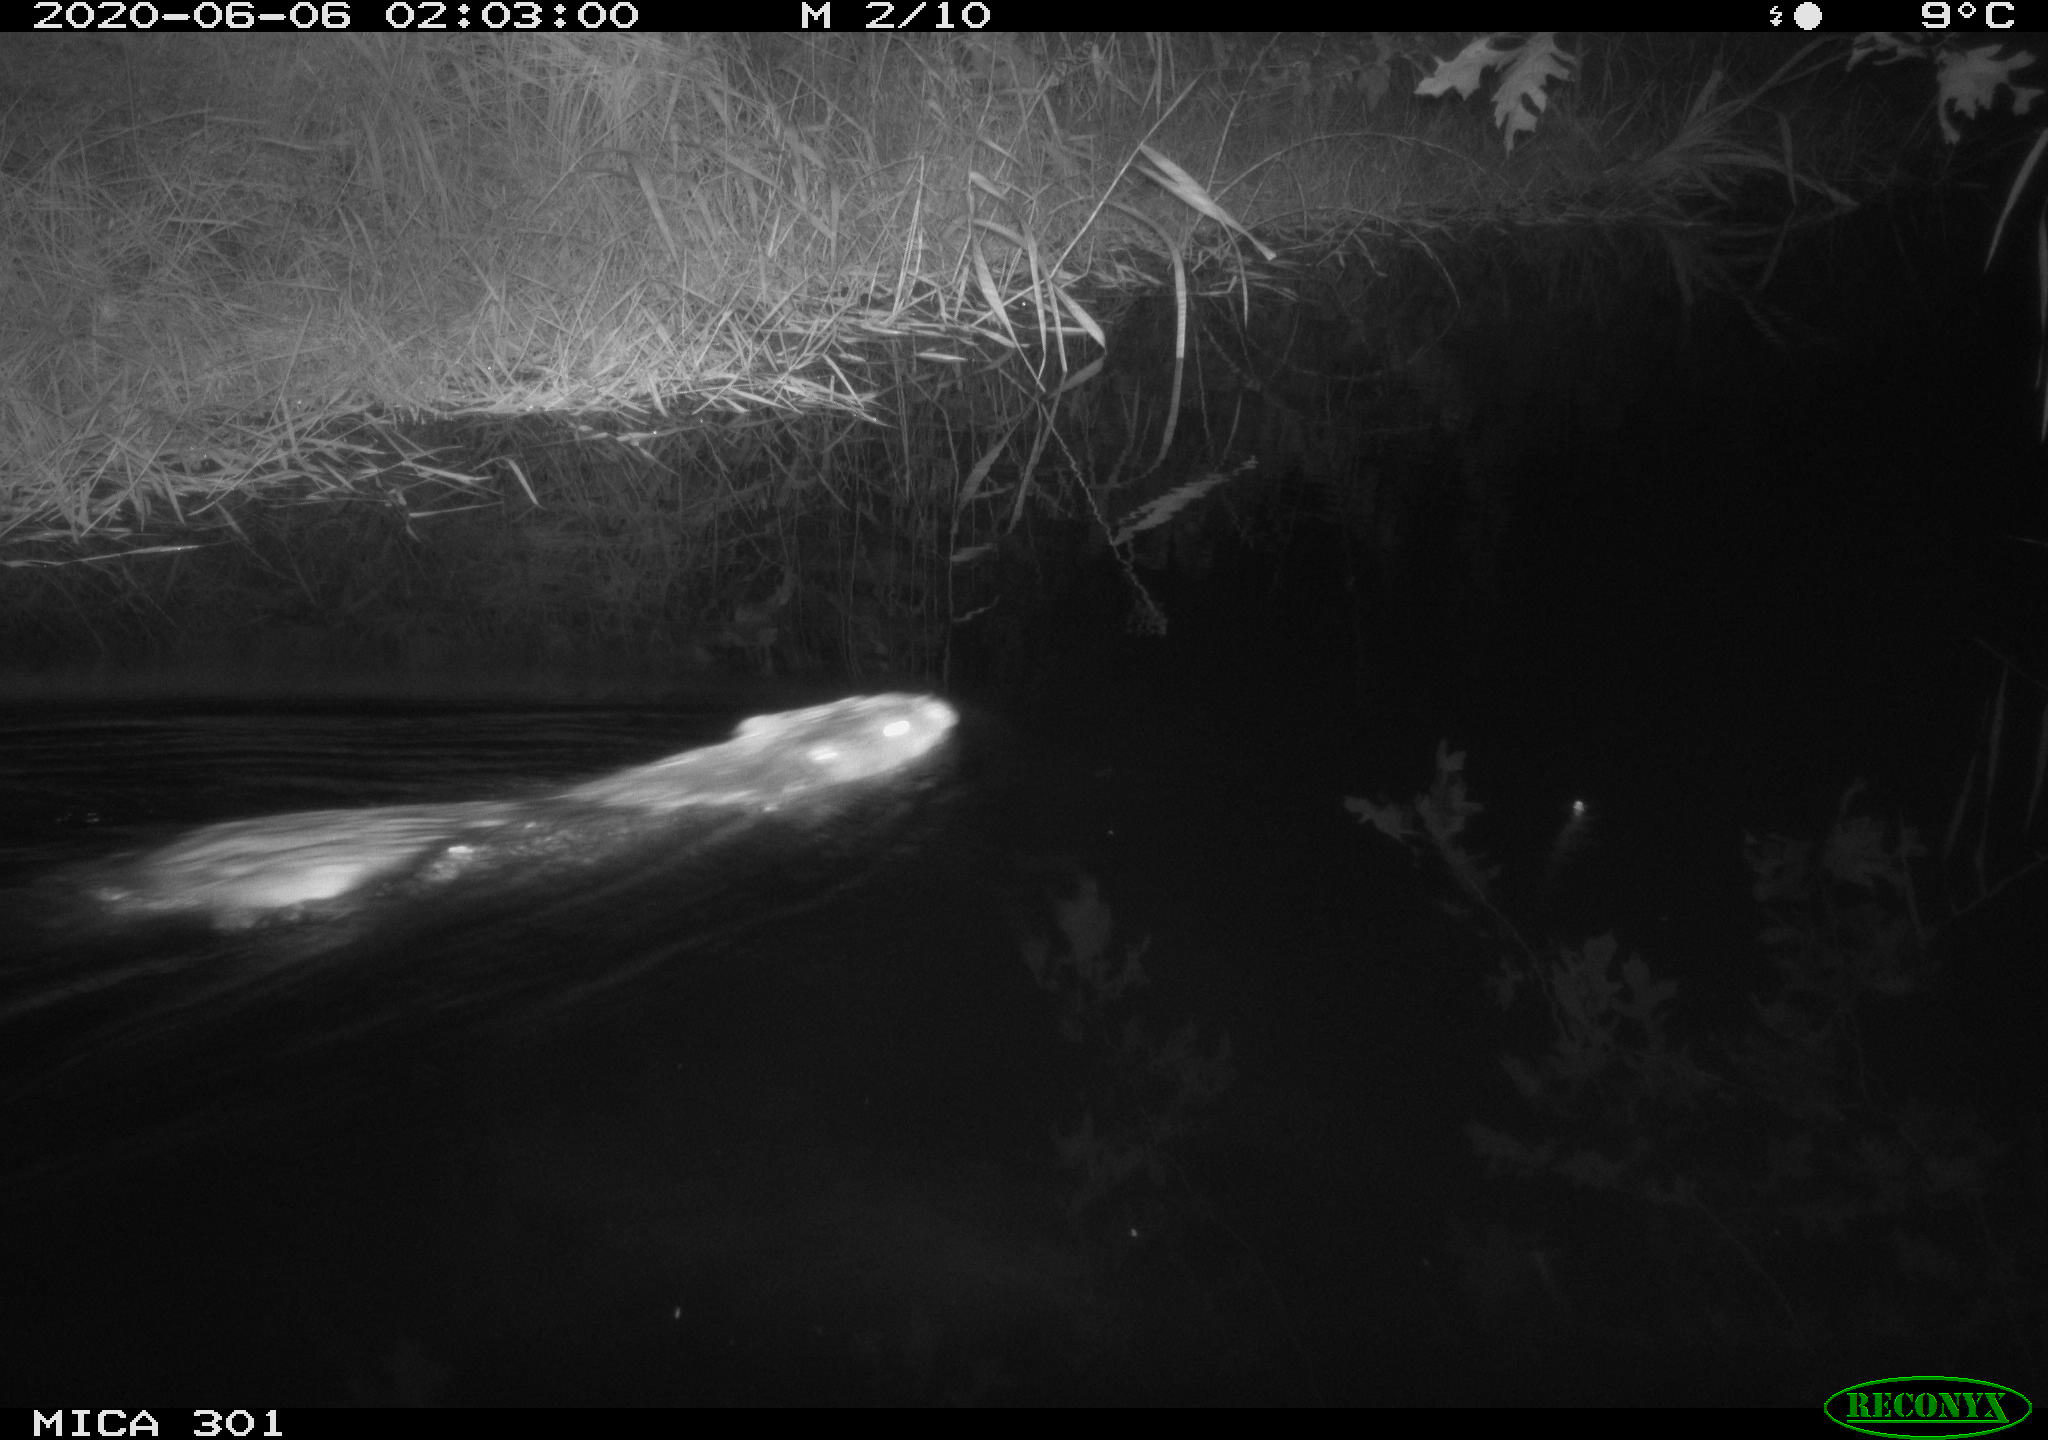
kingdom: Animalia
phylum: Chordata
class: Mammalia
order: Rodentia
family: Castoridae
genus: Castor
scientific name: Castor fiber
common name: Eurasian beaver
